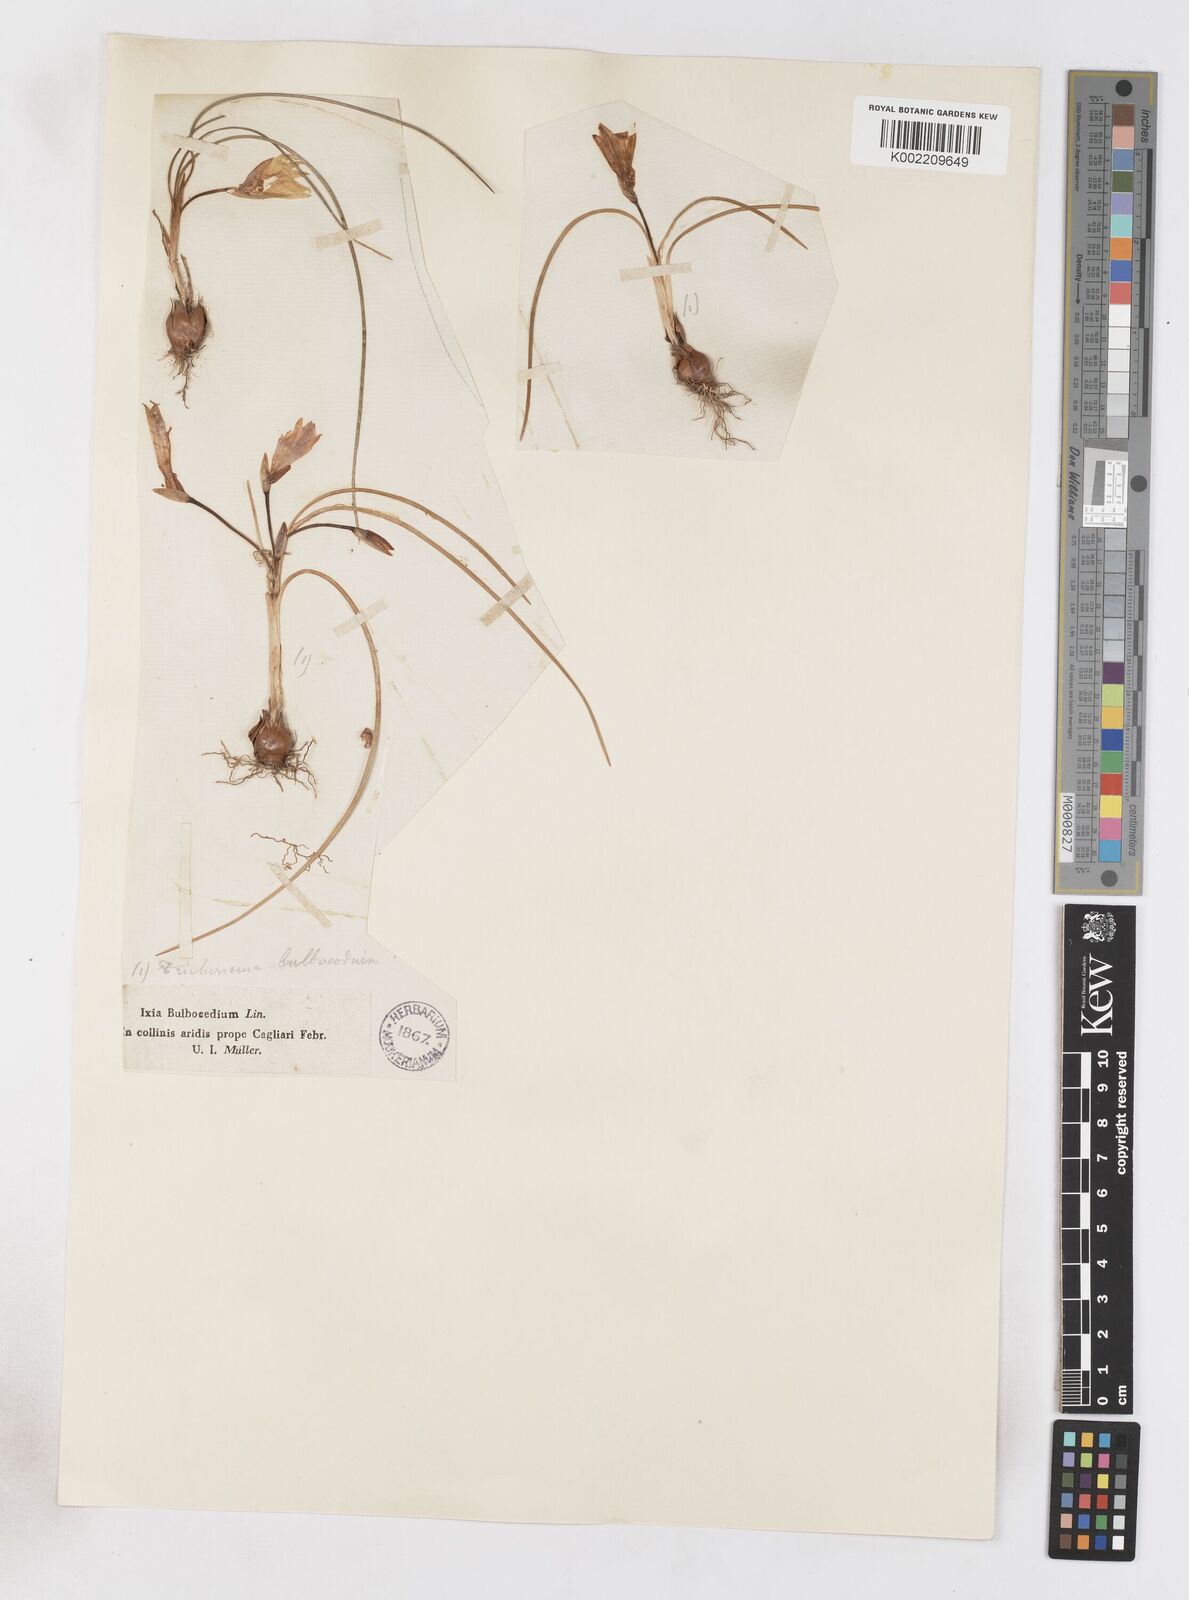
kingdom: Plantae
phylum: Tracheophyta
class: Liliopsida
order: Asparagales
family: Iridaceae
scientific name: Iridaceae
